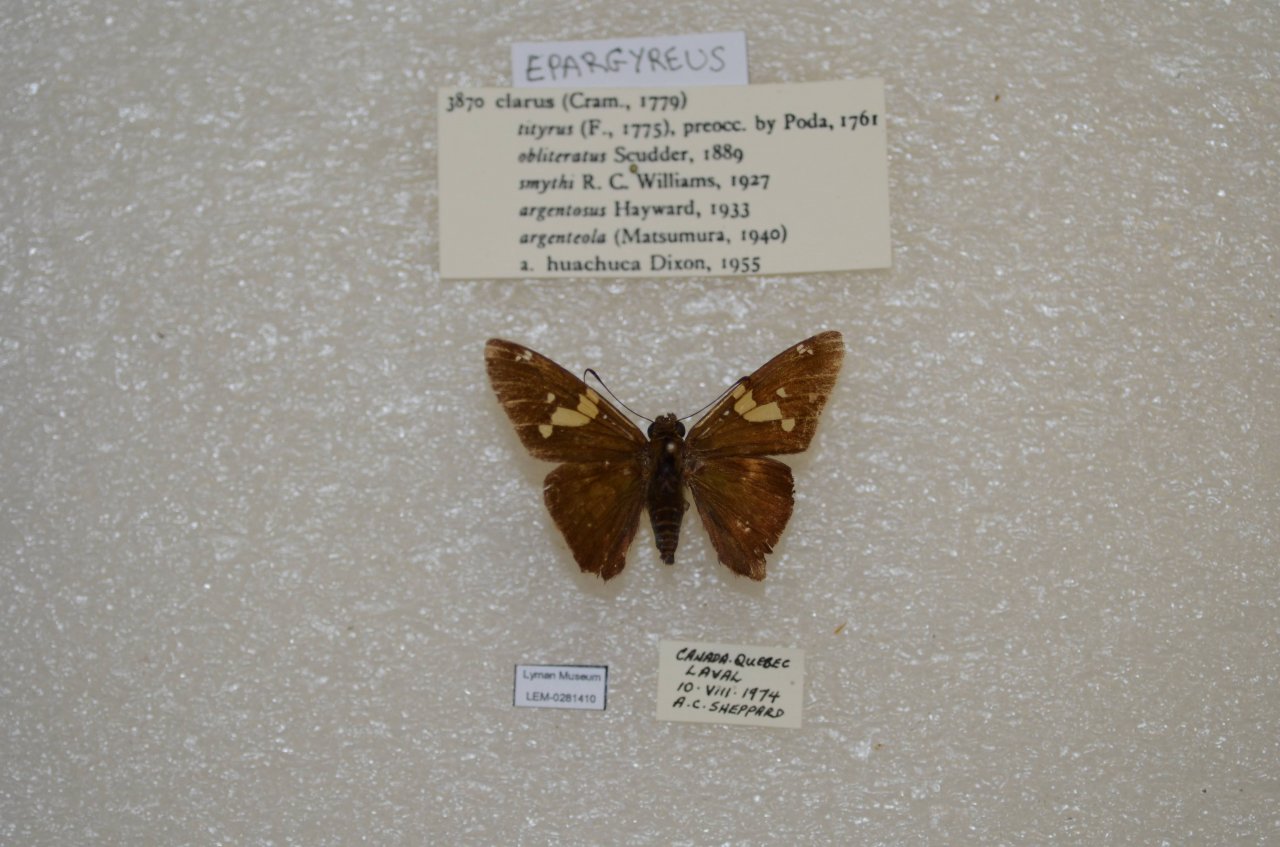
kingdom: Animalia
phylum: Arthropoda
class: Insecta
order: Lepidoptera
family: Hesperiidae
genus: Epargyreus
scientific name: Epargyreus clarus
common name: Silver-spotted Skipper
